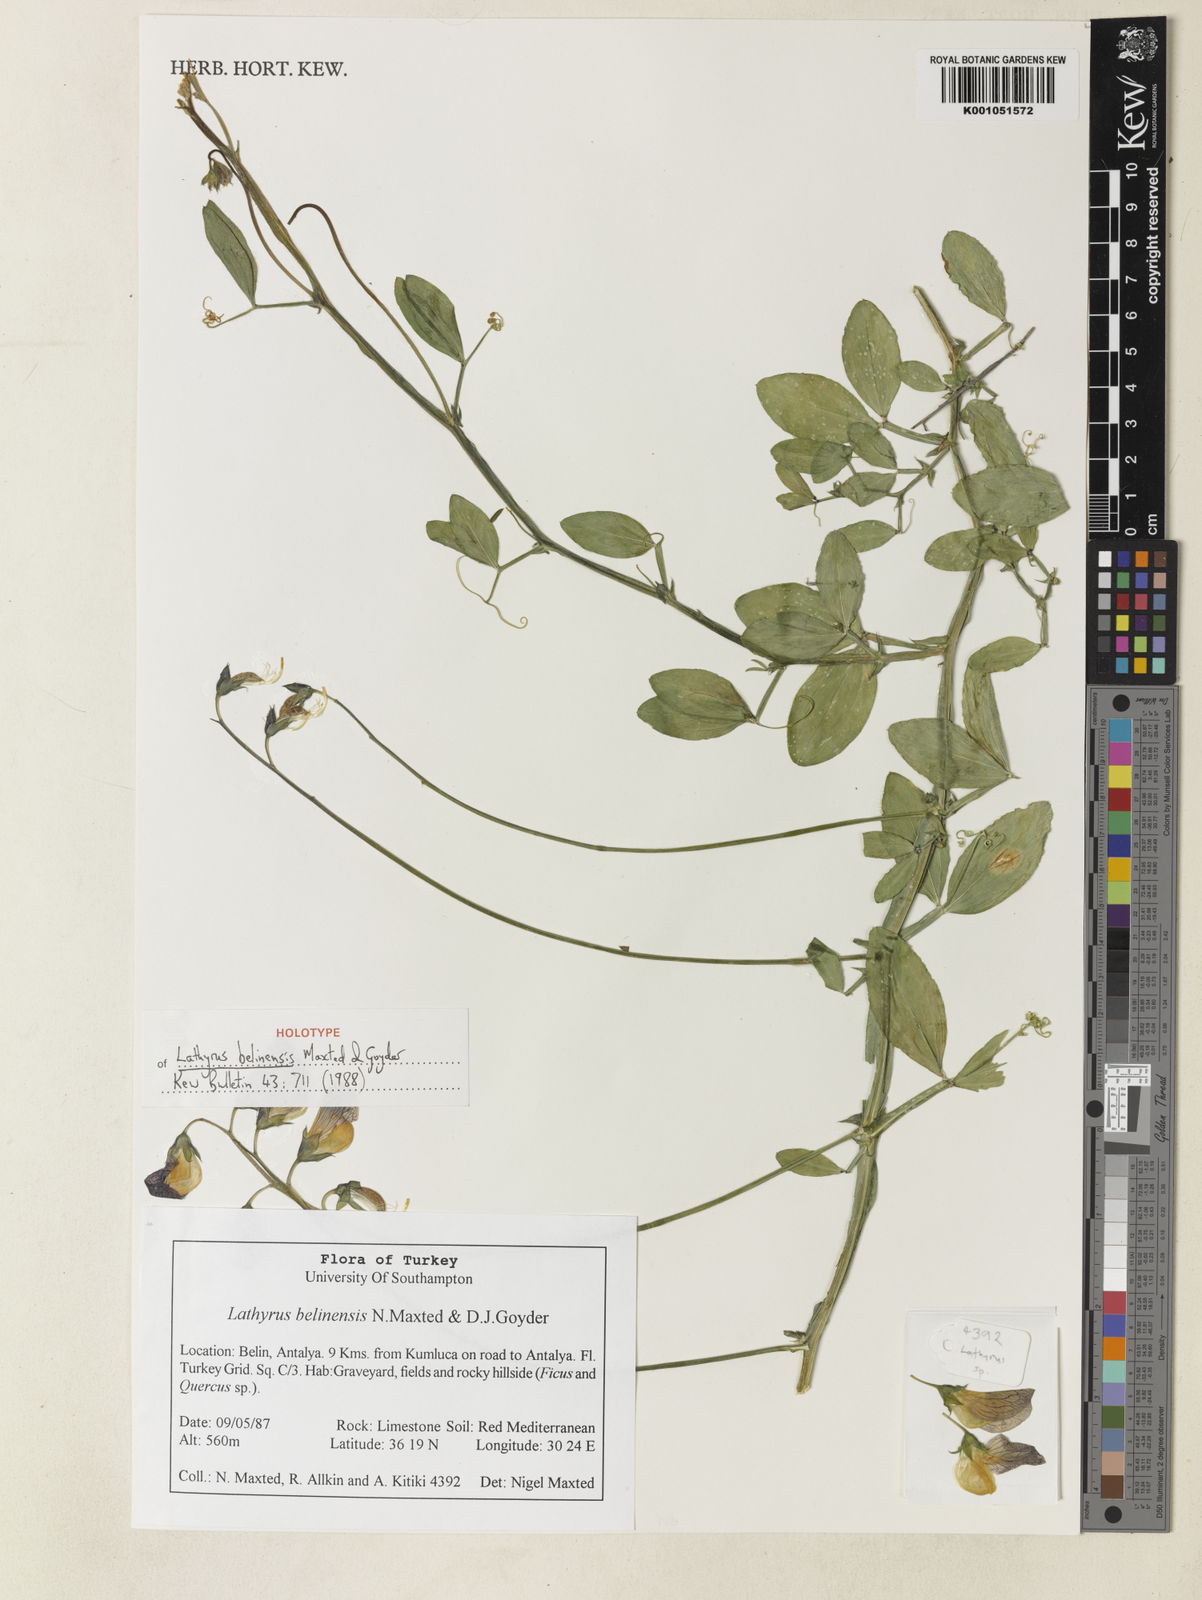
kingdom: Plantae
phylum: Tracheophyta
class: Magnoliopsida
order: Fabales
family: Fabaceae
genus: Lathyrus
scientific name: Lathyrus belinensis
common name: Belin sweet pea
